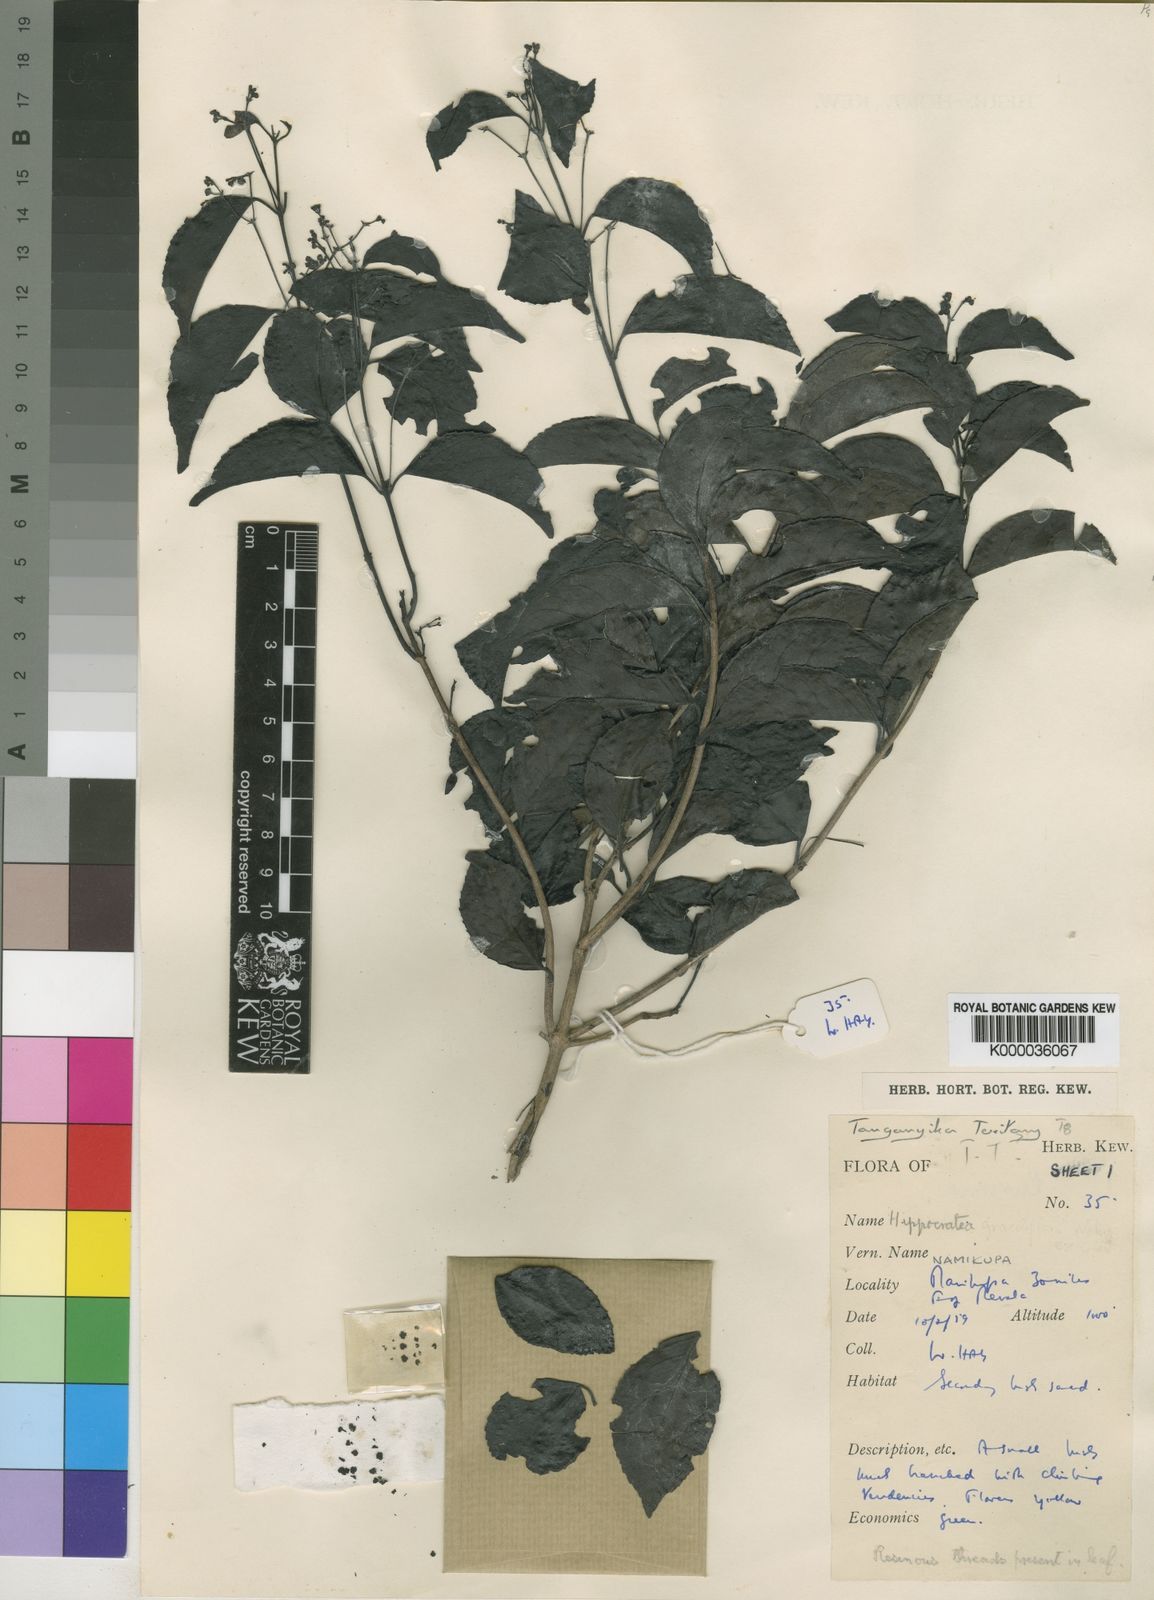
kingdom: Plantae
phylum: Tracheophyta
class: Magnoliopsida
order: Celastrales
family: Celastraceae
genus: Pristimera
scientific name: Pristimera
